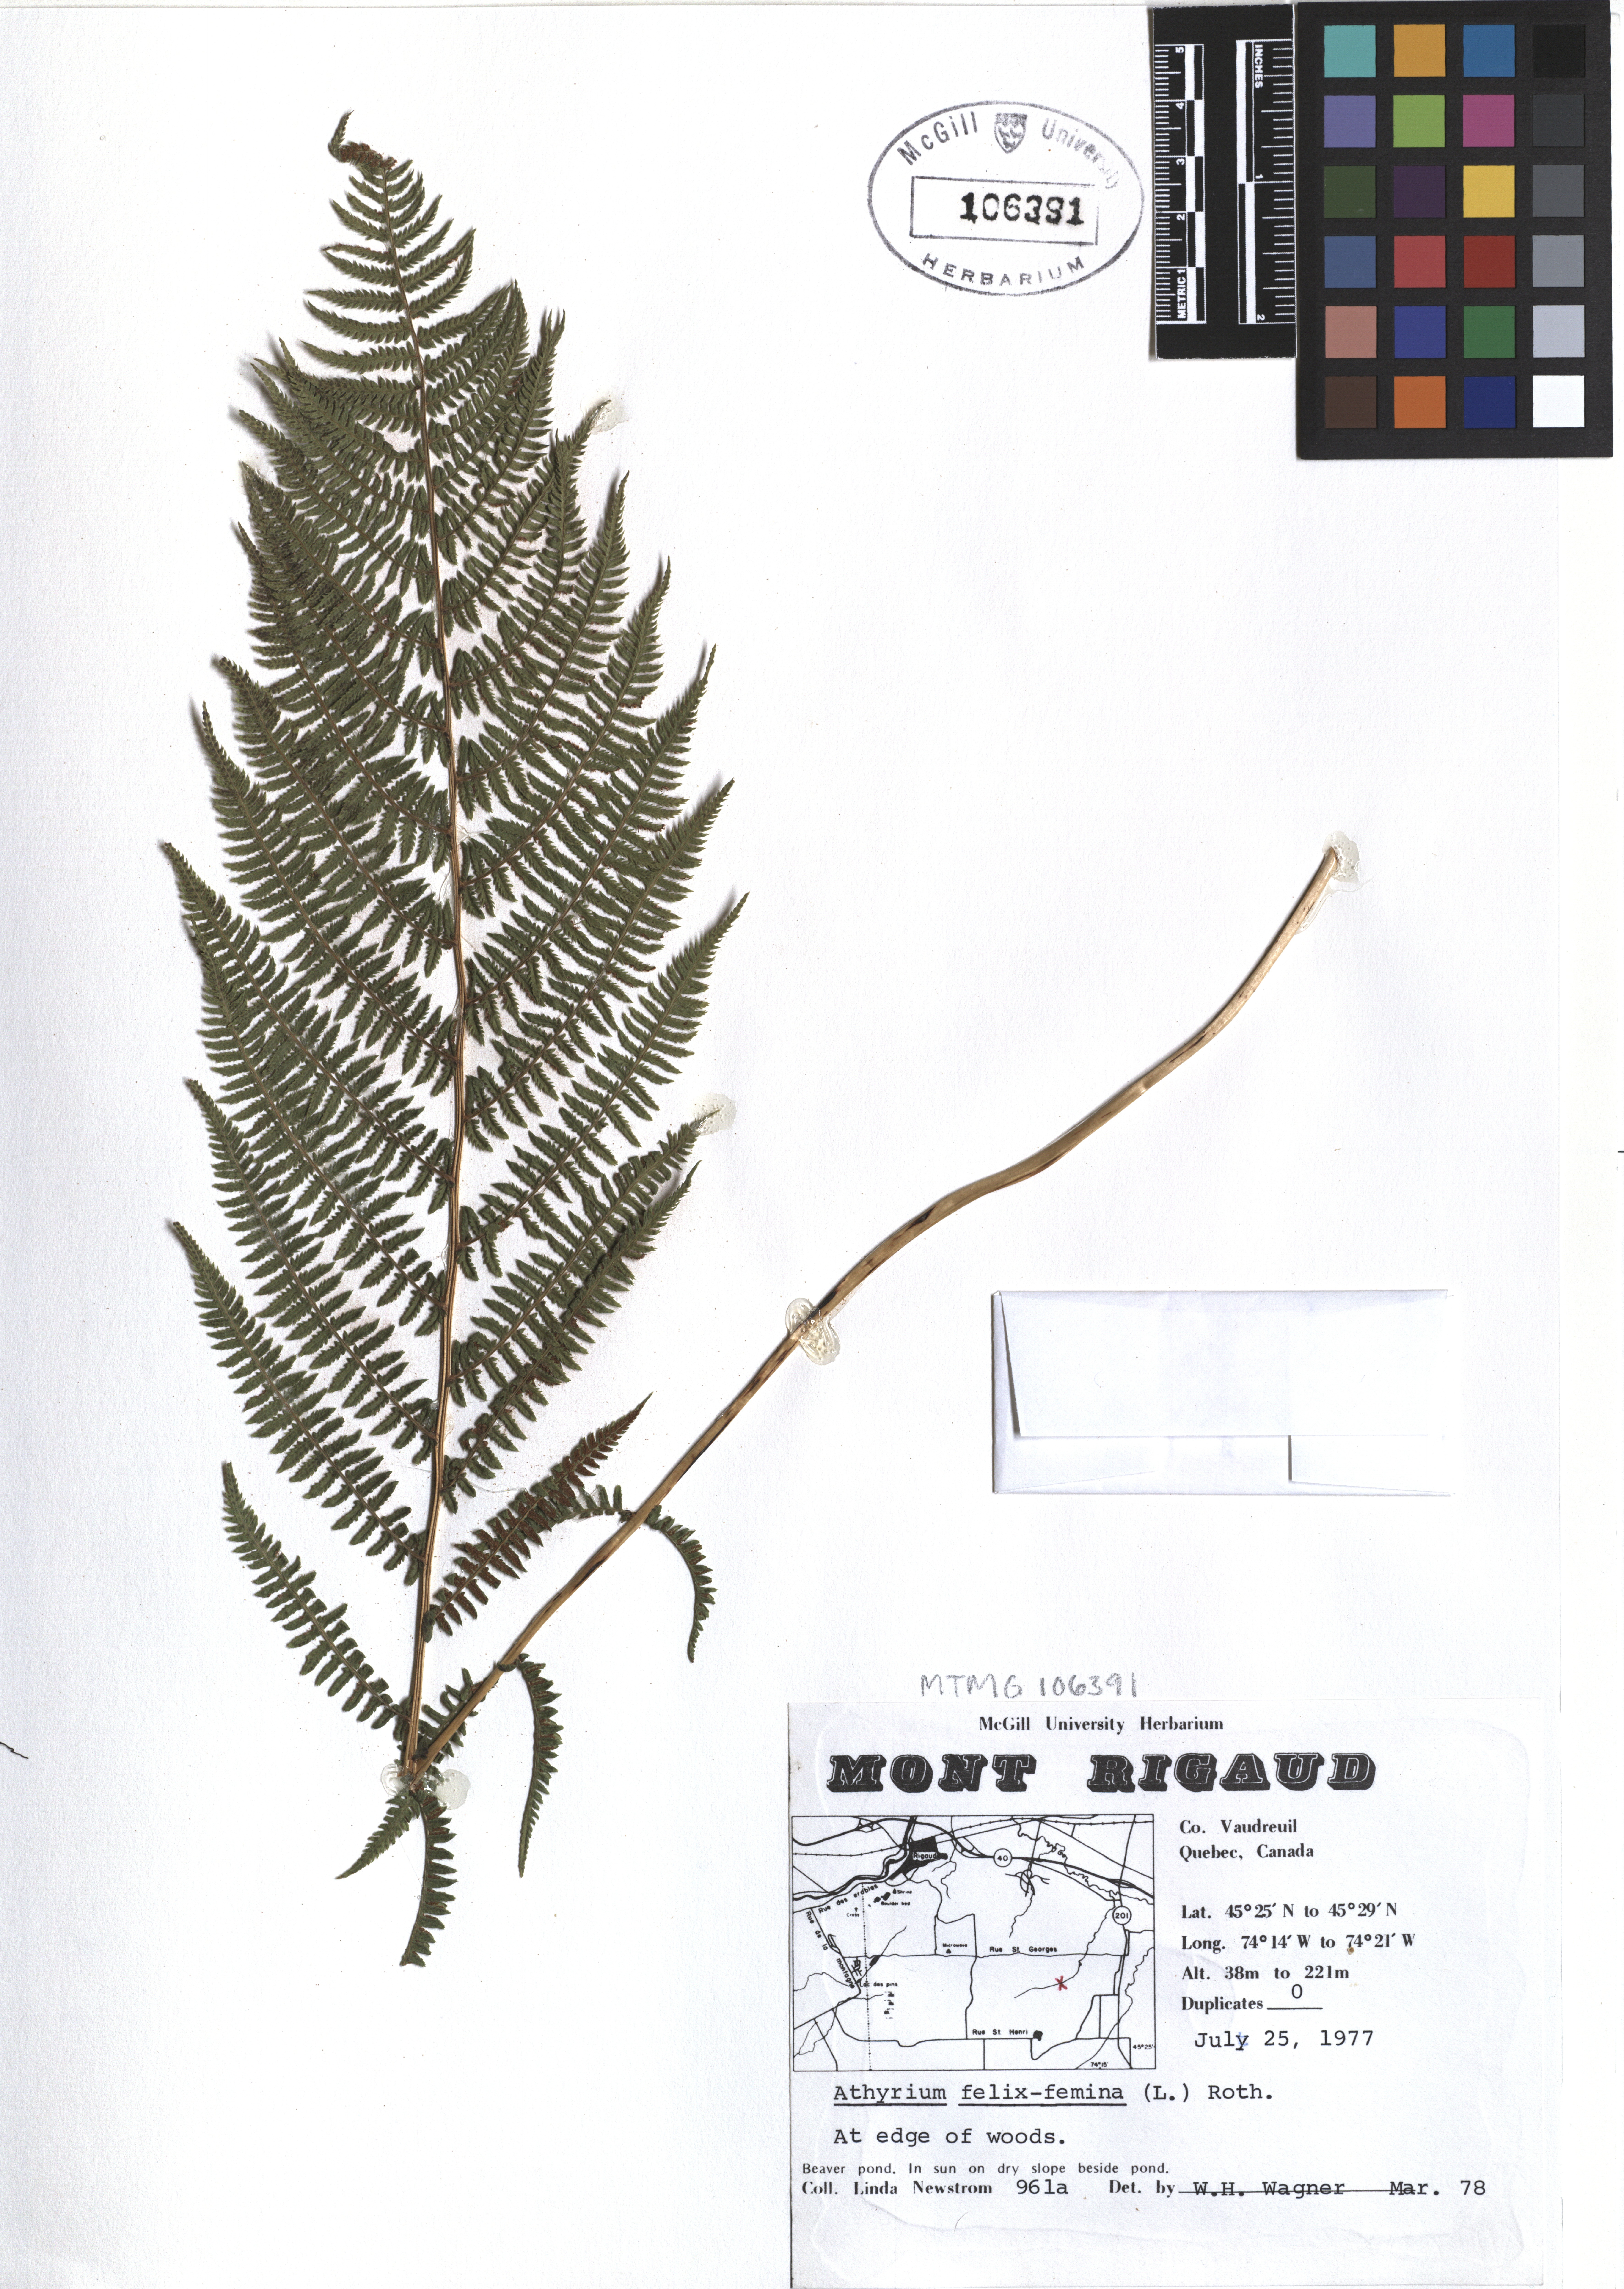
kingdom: Plantae
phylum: Tracheophyta
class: Polypodiopsida
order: Polypodiales
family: Athyriaceae
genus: Athyrium
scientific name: Athyrium filix-femina
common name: Lady fern
